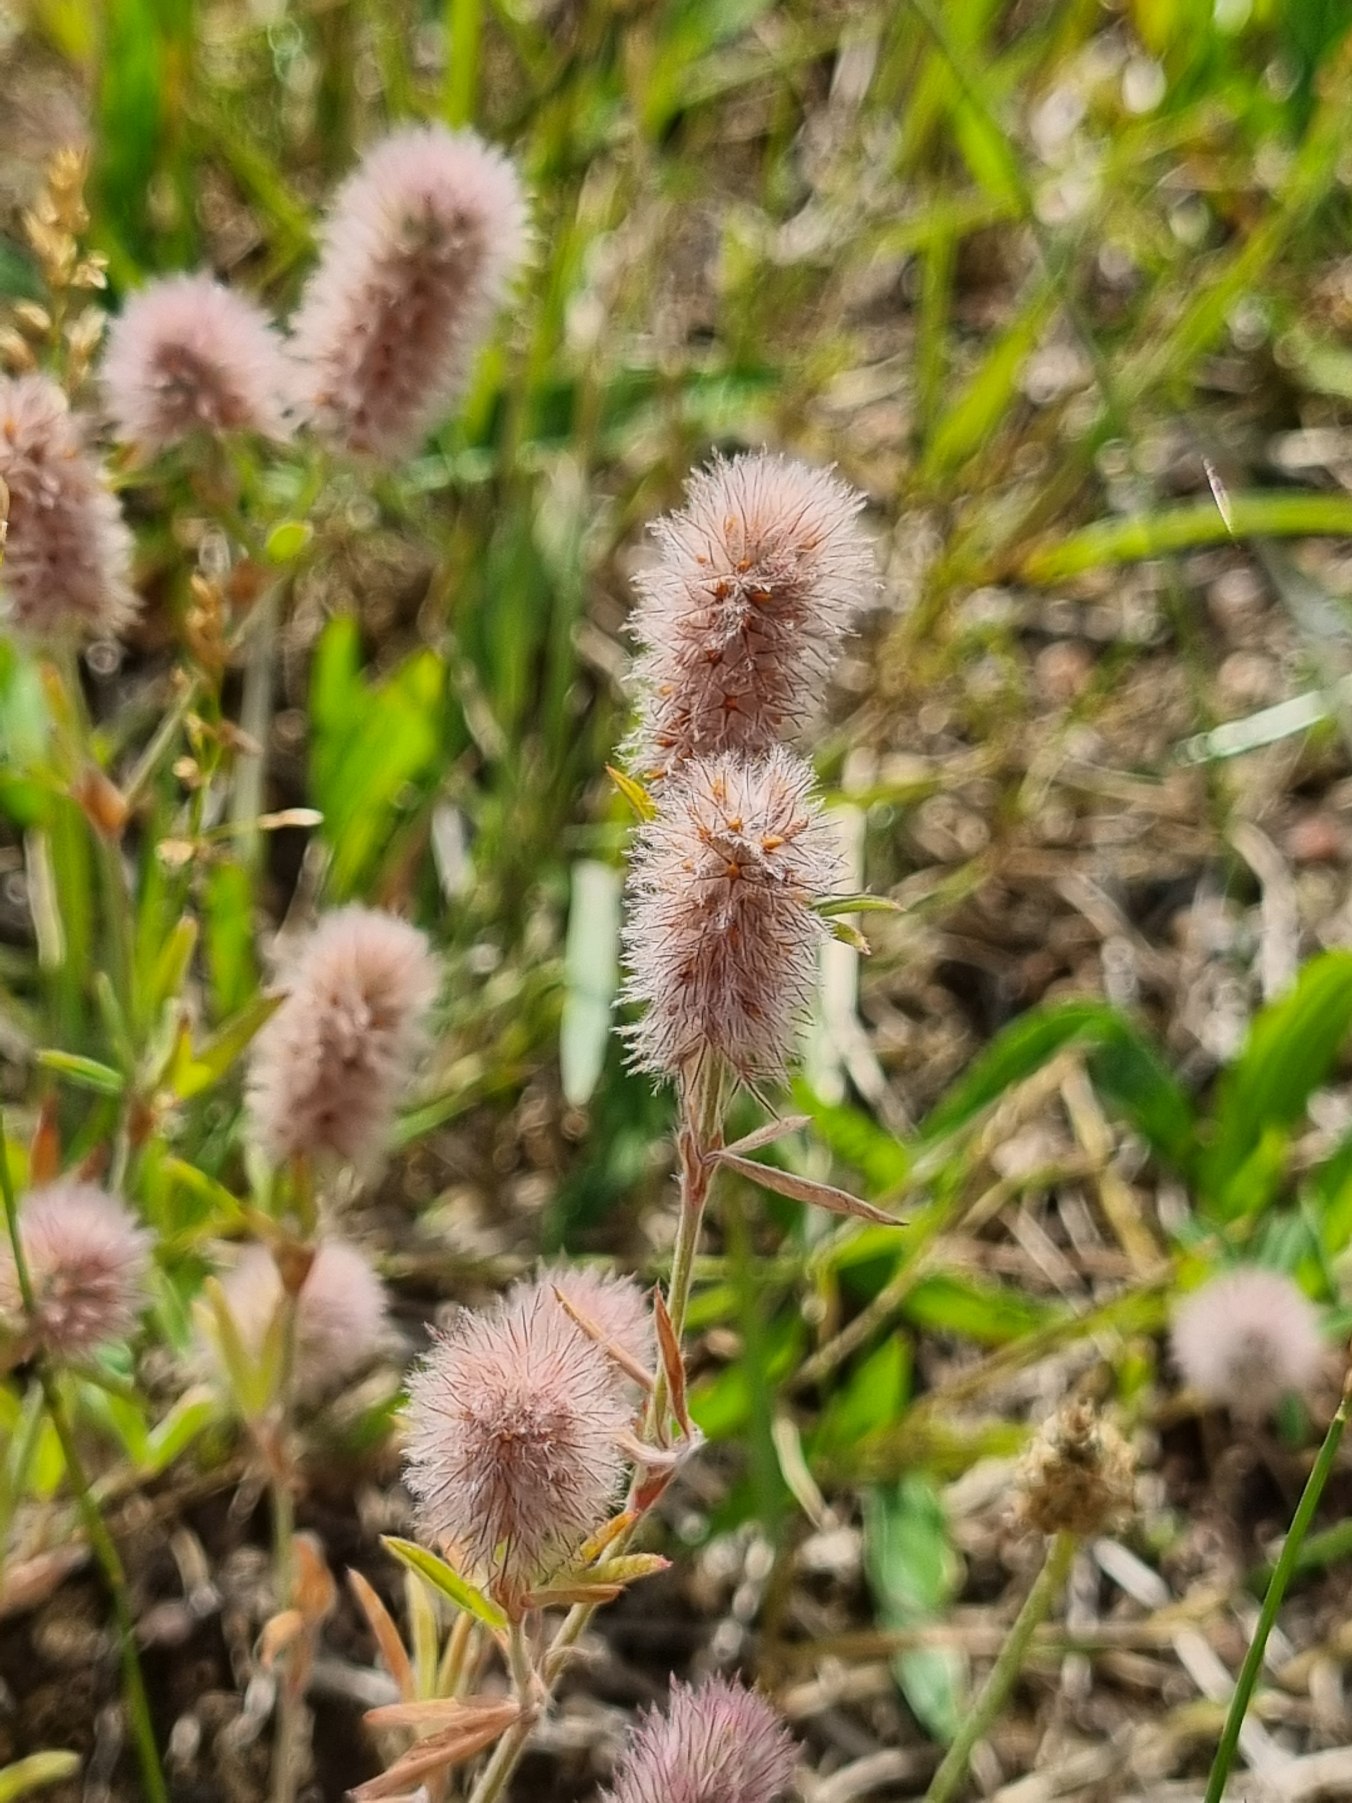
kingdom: Plantae
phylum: Tracheophyta
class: Magnoliopsida
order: Fabales
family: Fabaceae
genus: Trifolium
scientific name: Trifolium arvense
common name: Hare-kløver
